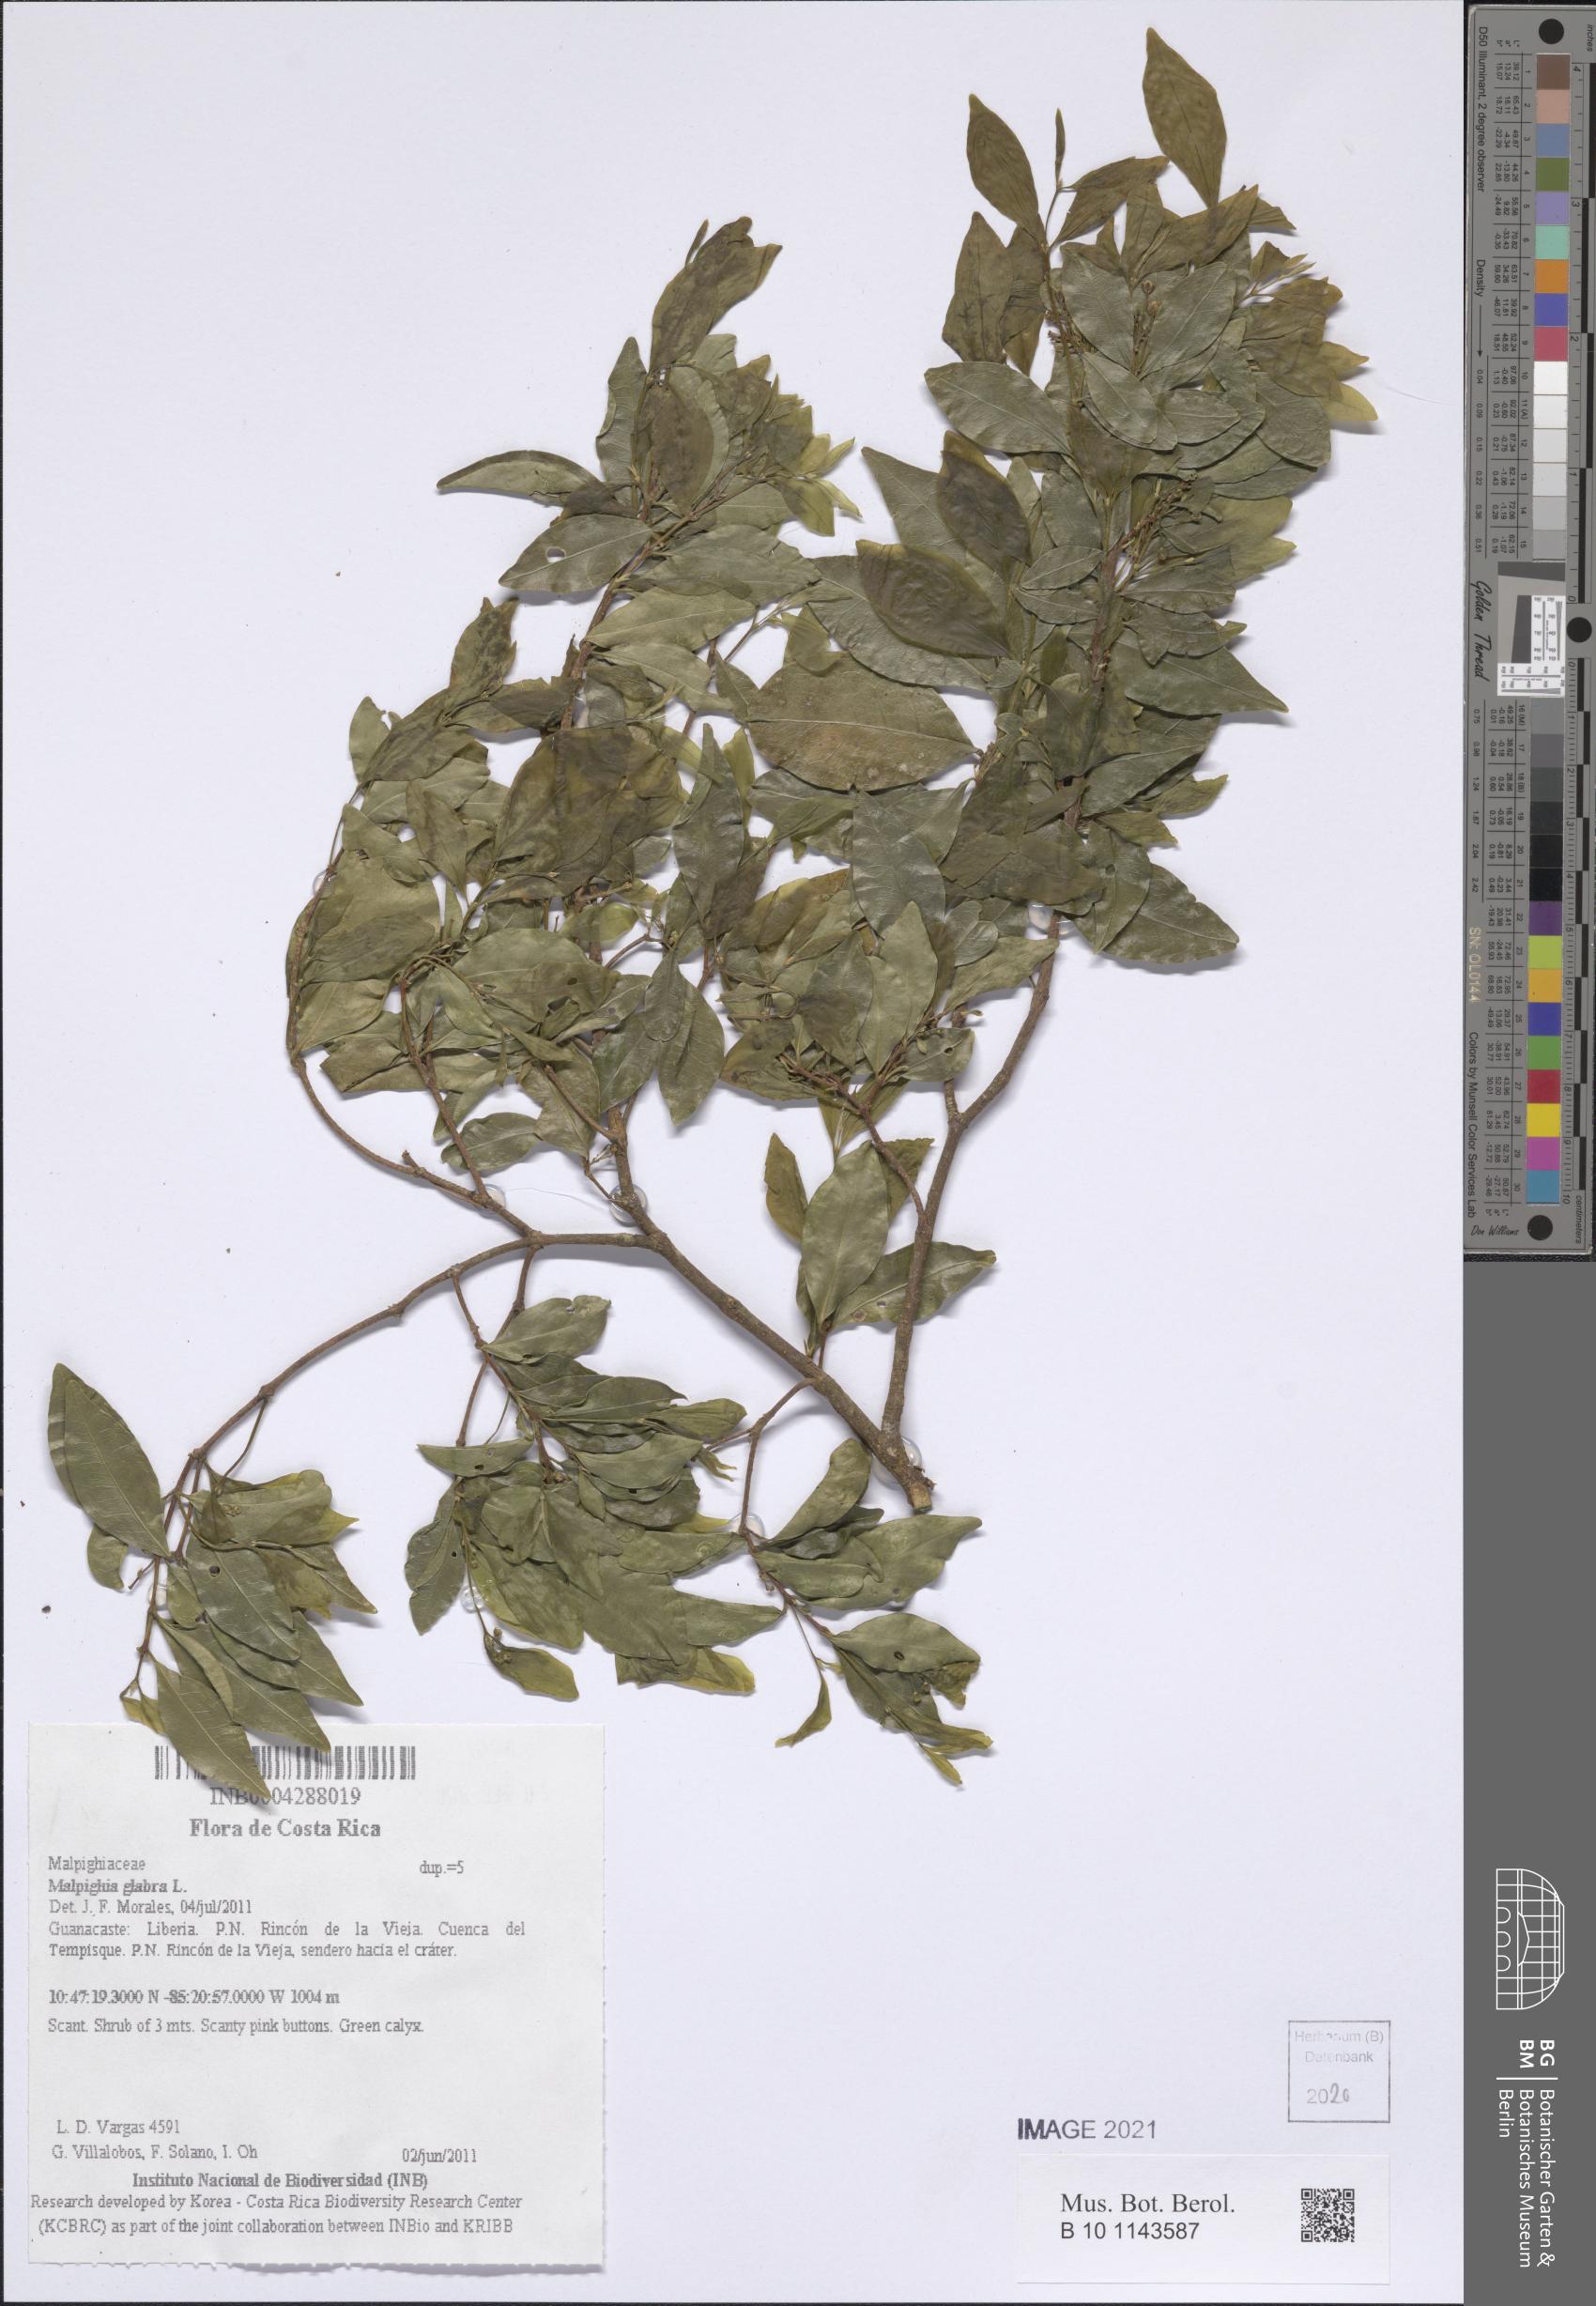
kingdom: Plantae
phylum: Tracheophyta
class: Magnoliopsida
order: Malpighiales
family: Malpighiaceae
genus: Malpighia
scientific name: Malpighia glabra
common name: Barbados cherry
